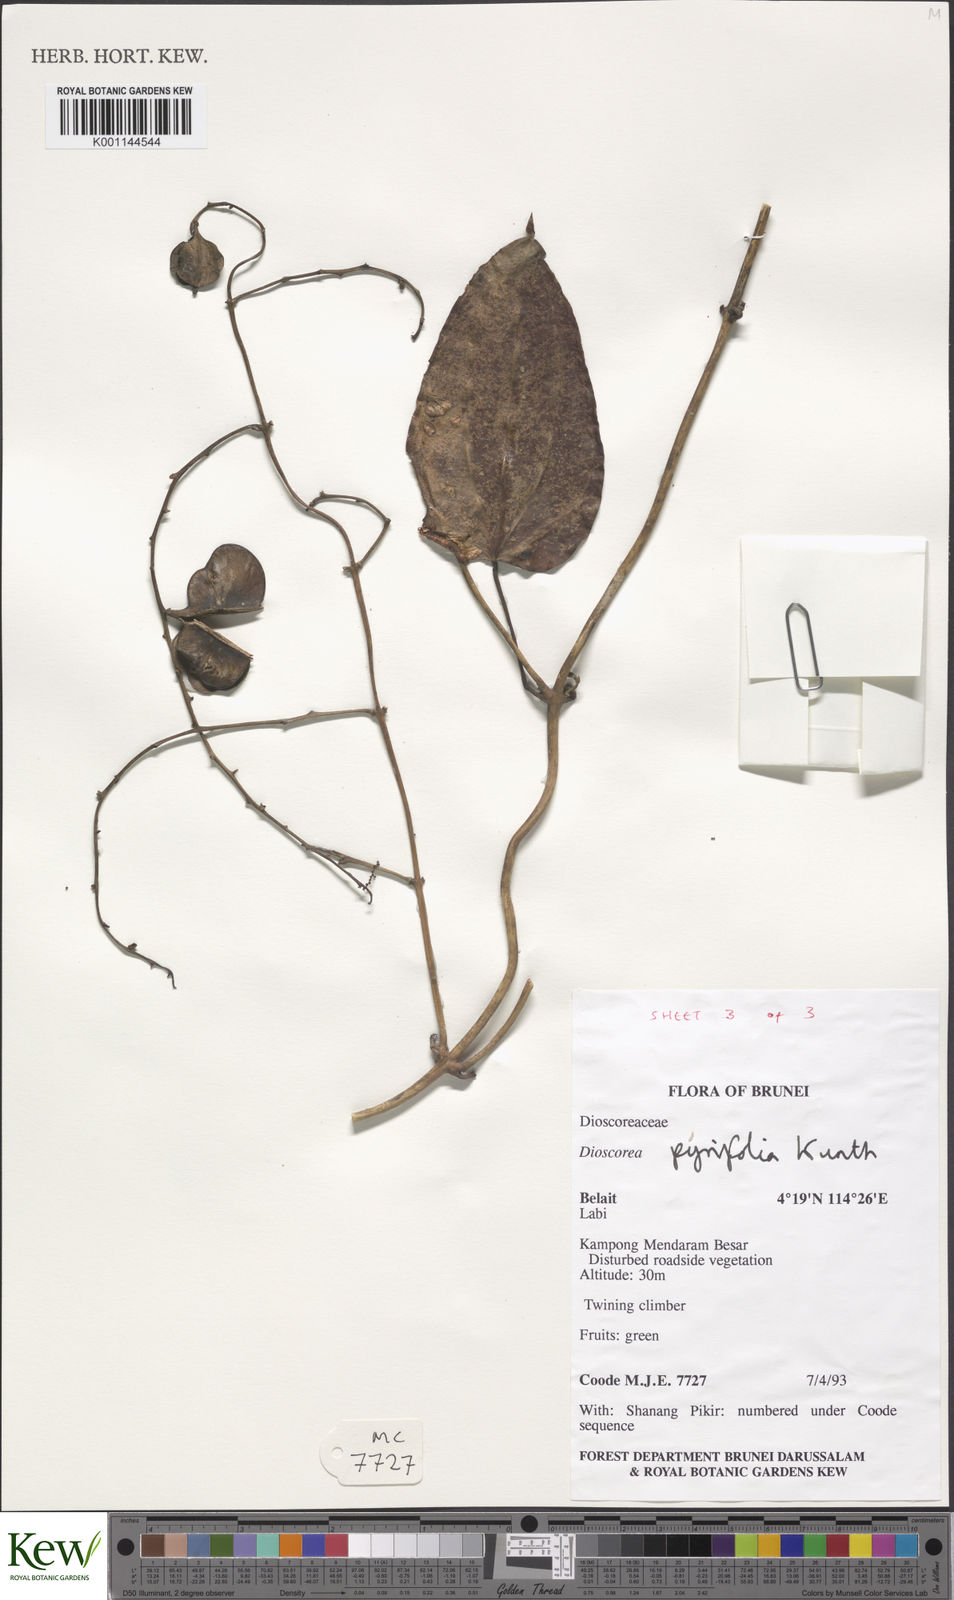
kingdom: Plantae
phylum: Tracheophyta
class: Liliopsida
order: Dioscoreales
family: Dioscoreaceae
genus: Dioscorea
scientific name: Dioscorea pyrifolia
